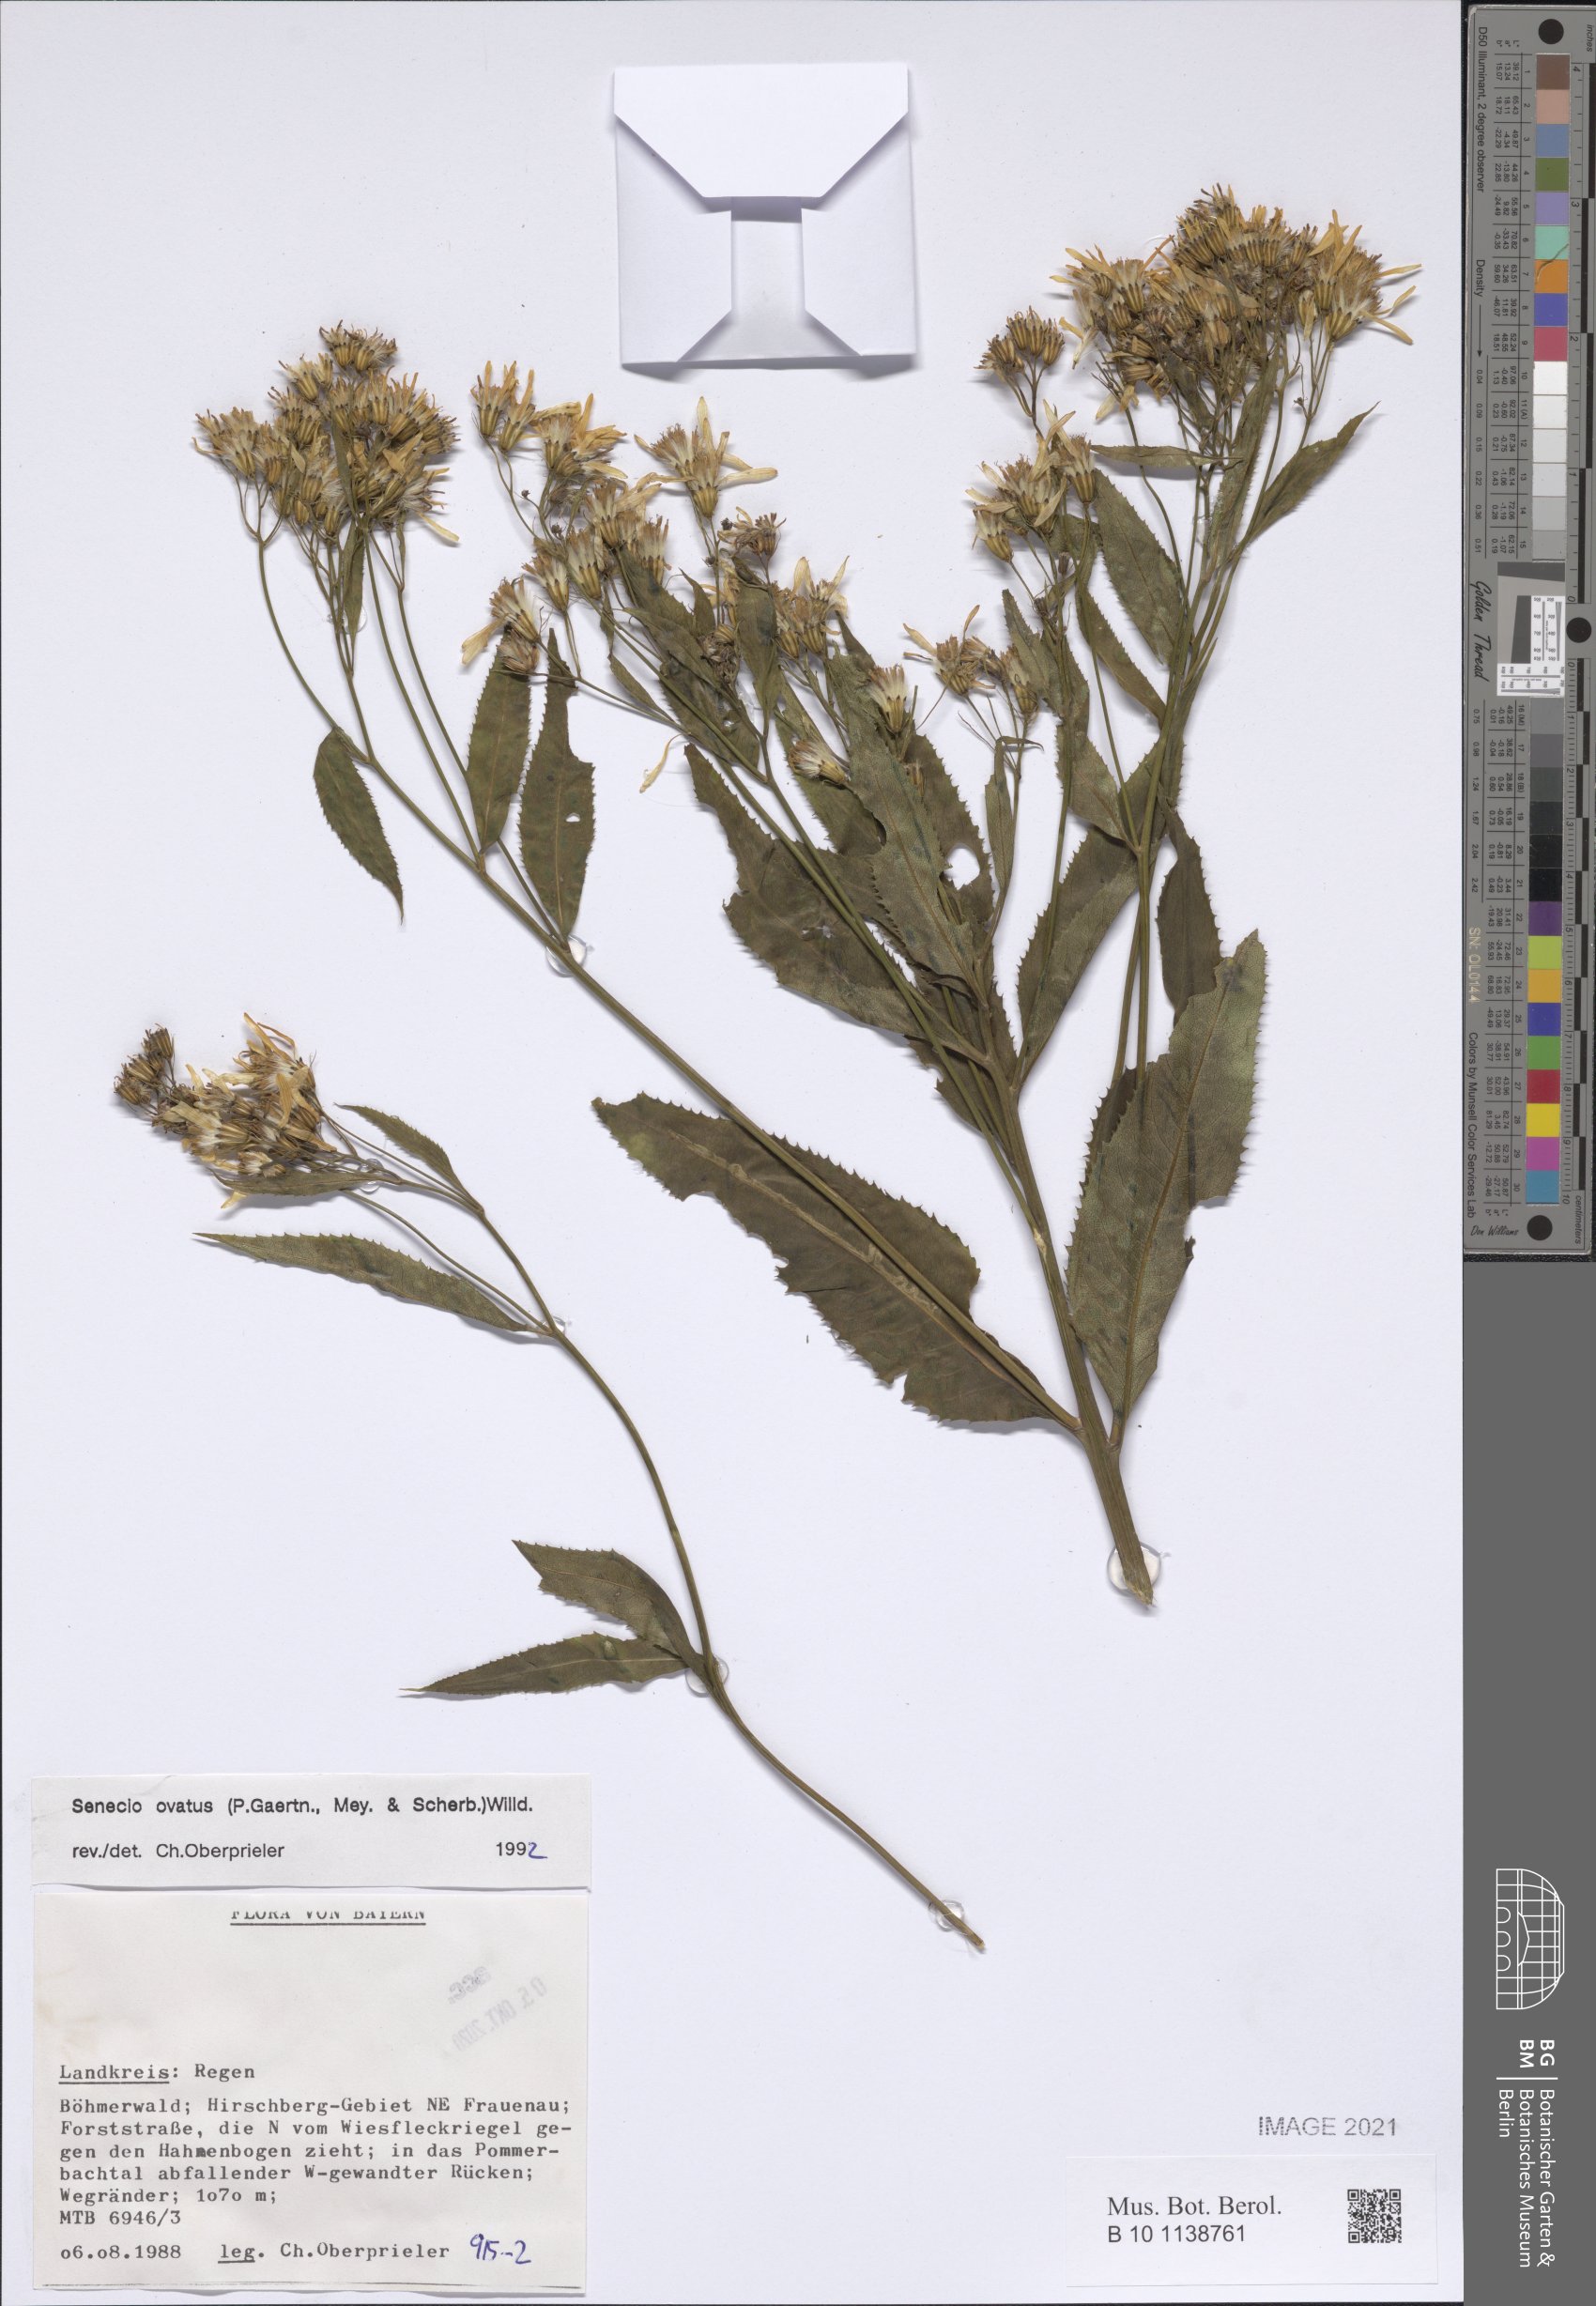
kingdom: Plantae
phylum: Tracheophyta
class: Magnoliopsida
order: Asterales
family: Asteraceae
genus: Senecio
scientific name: Senecio ovatus
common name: Wood ragwort
